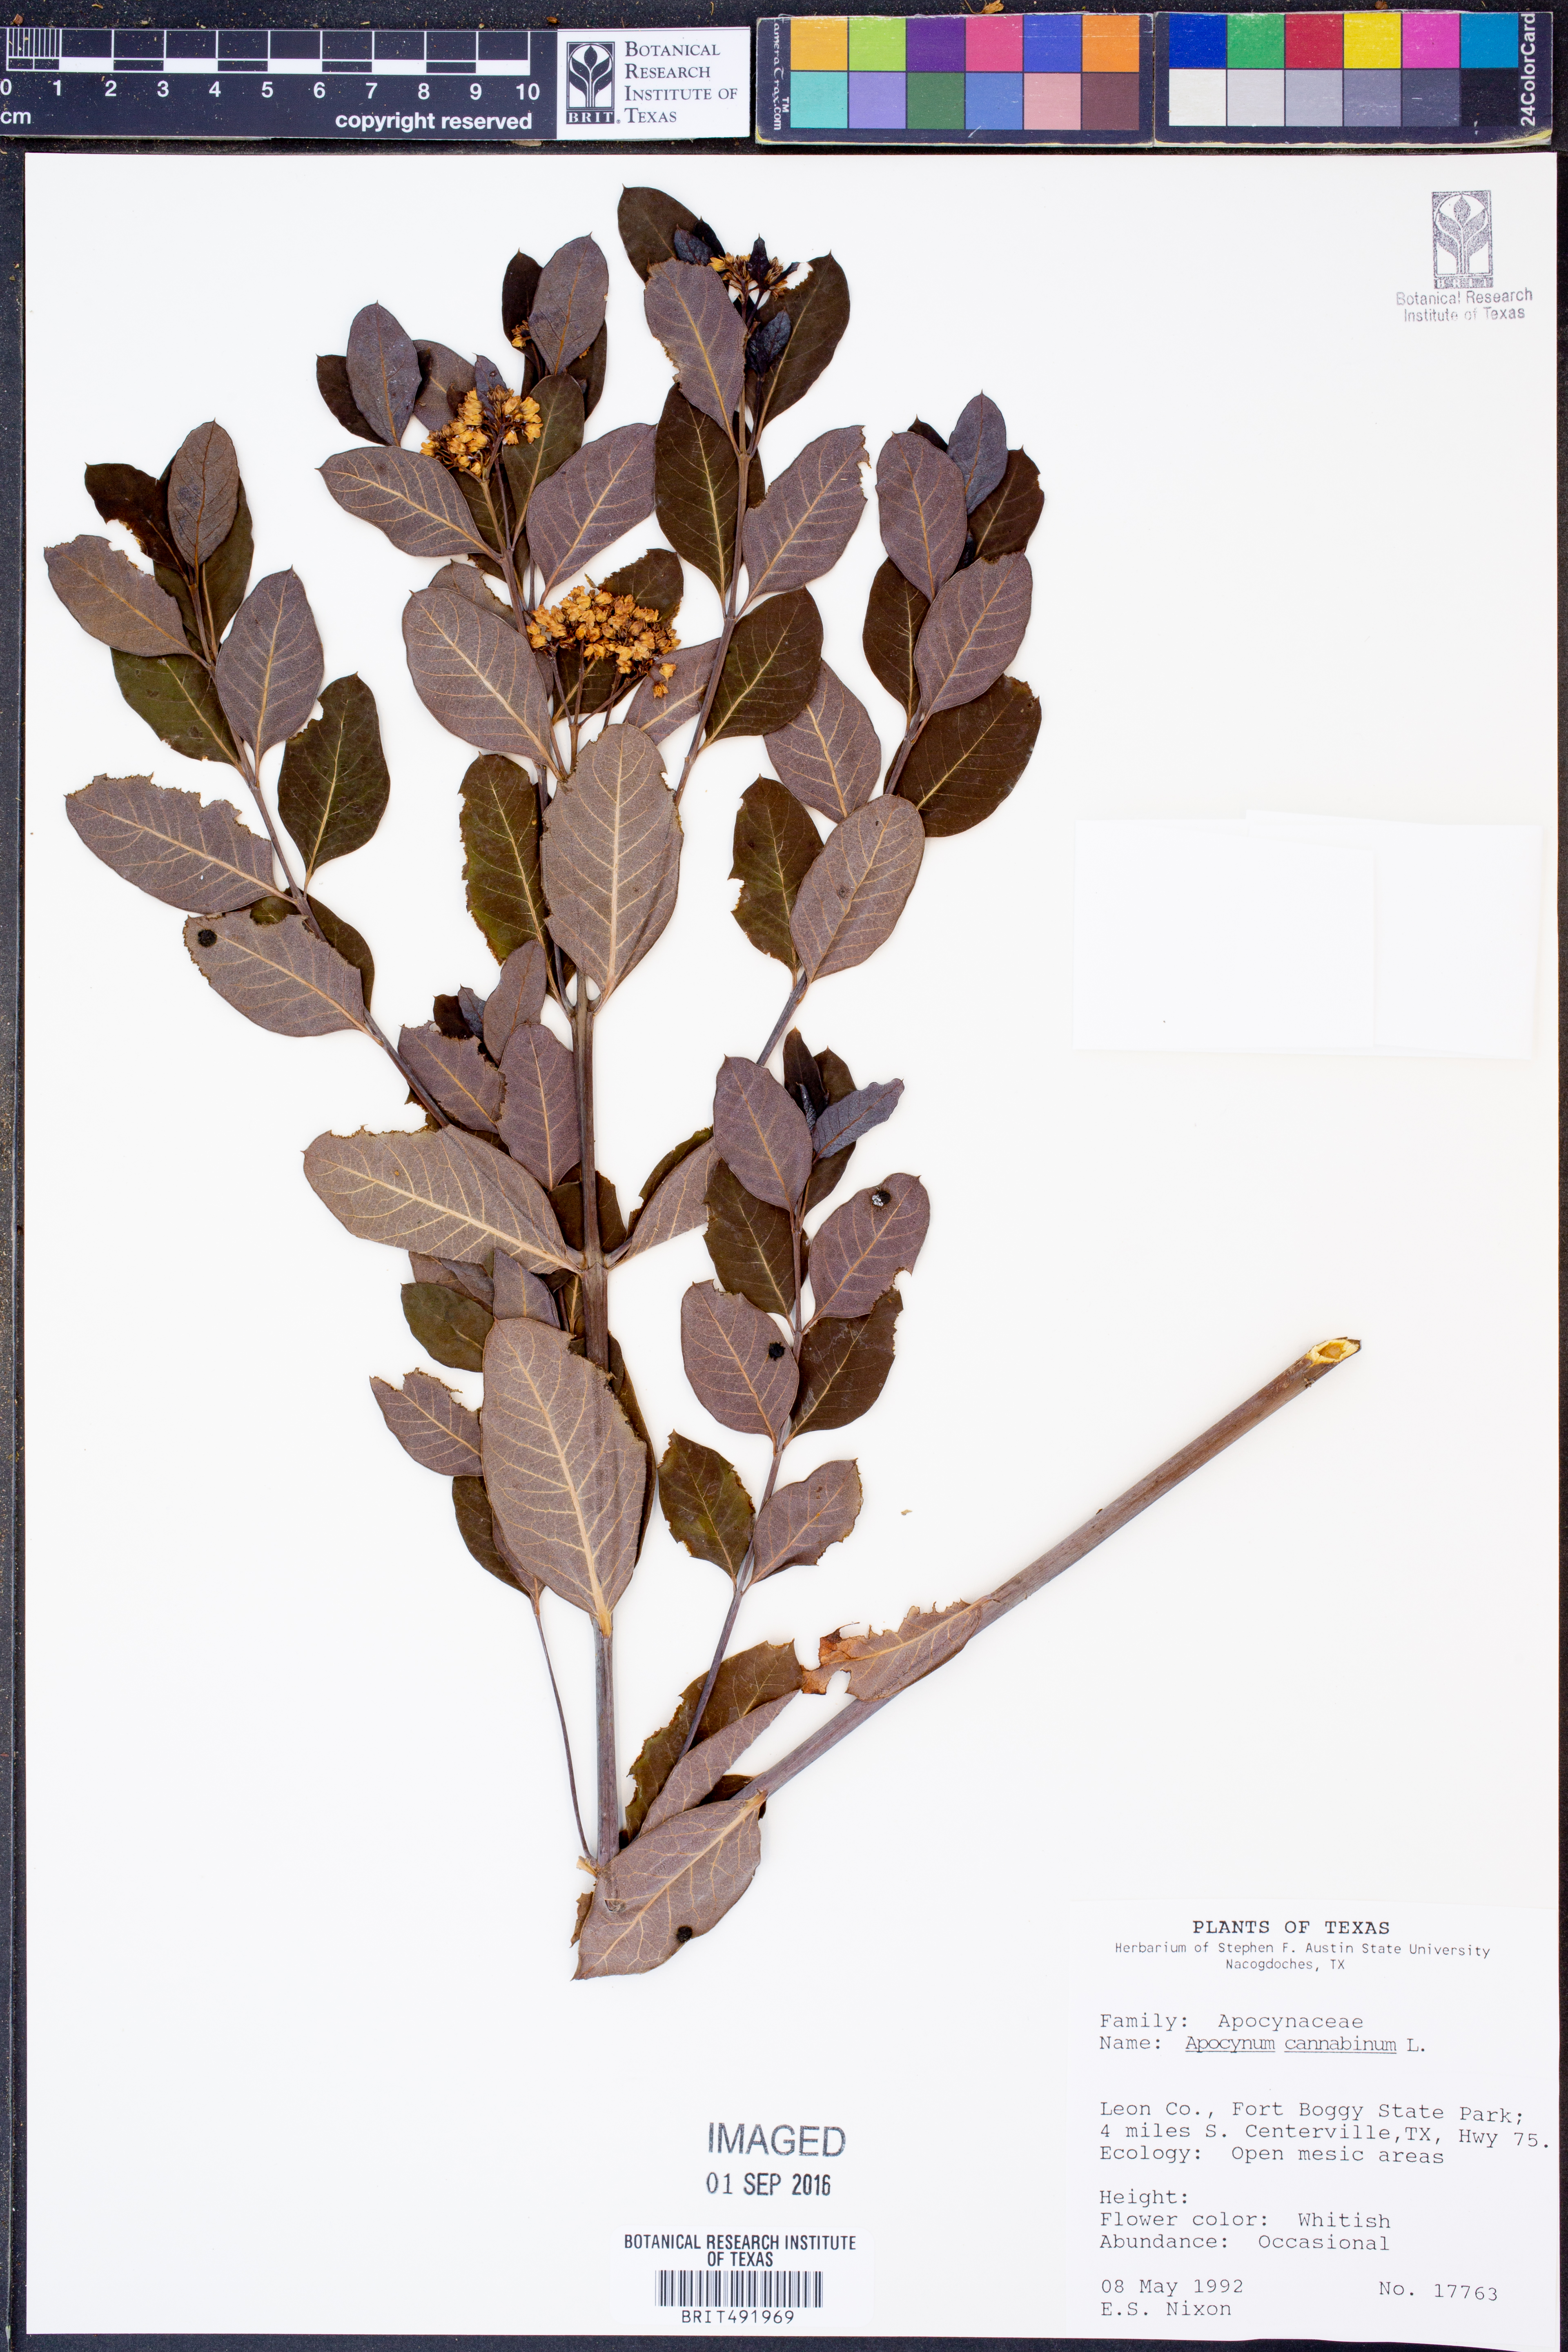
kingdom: Plantae
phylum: Tracheophyta
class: Magnoliopsida
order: Gentianales
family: Apocynaceae
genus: Apocynum
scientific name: Apocynum cannabinum
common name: Hemp dogbane
